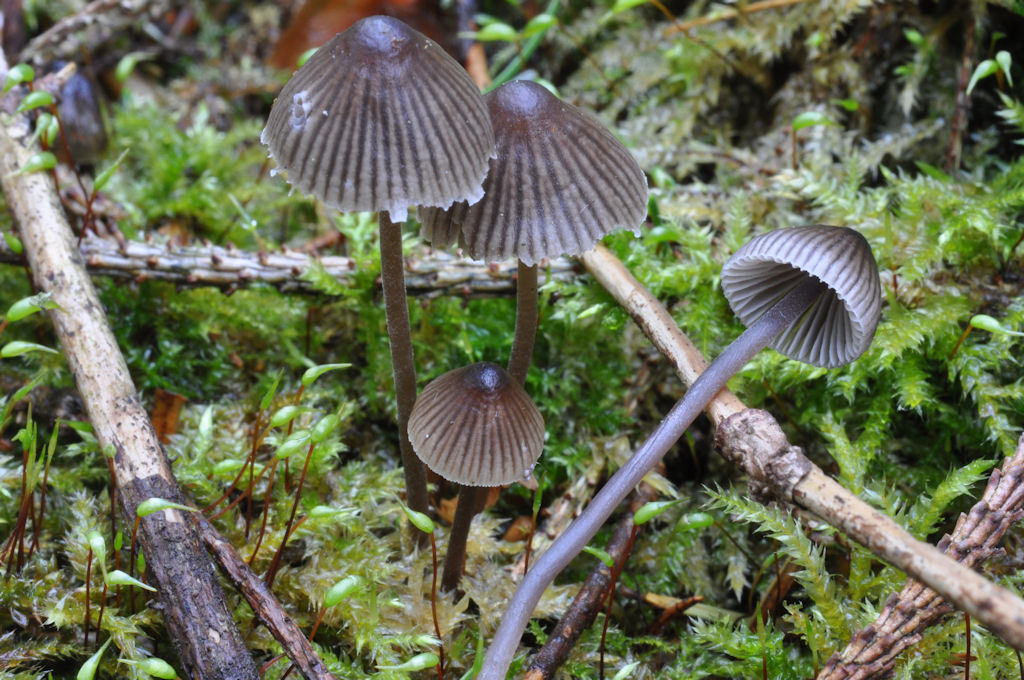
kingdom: Fungi
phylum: Basidiomycota
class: Agaricomycetes
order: Agaricales
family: Mycenaceae
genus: Mycena
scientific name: Mycena leptocephala
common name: klor-huesvamp
